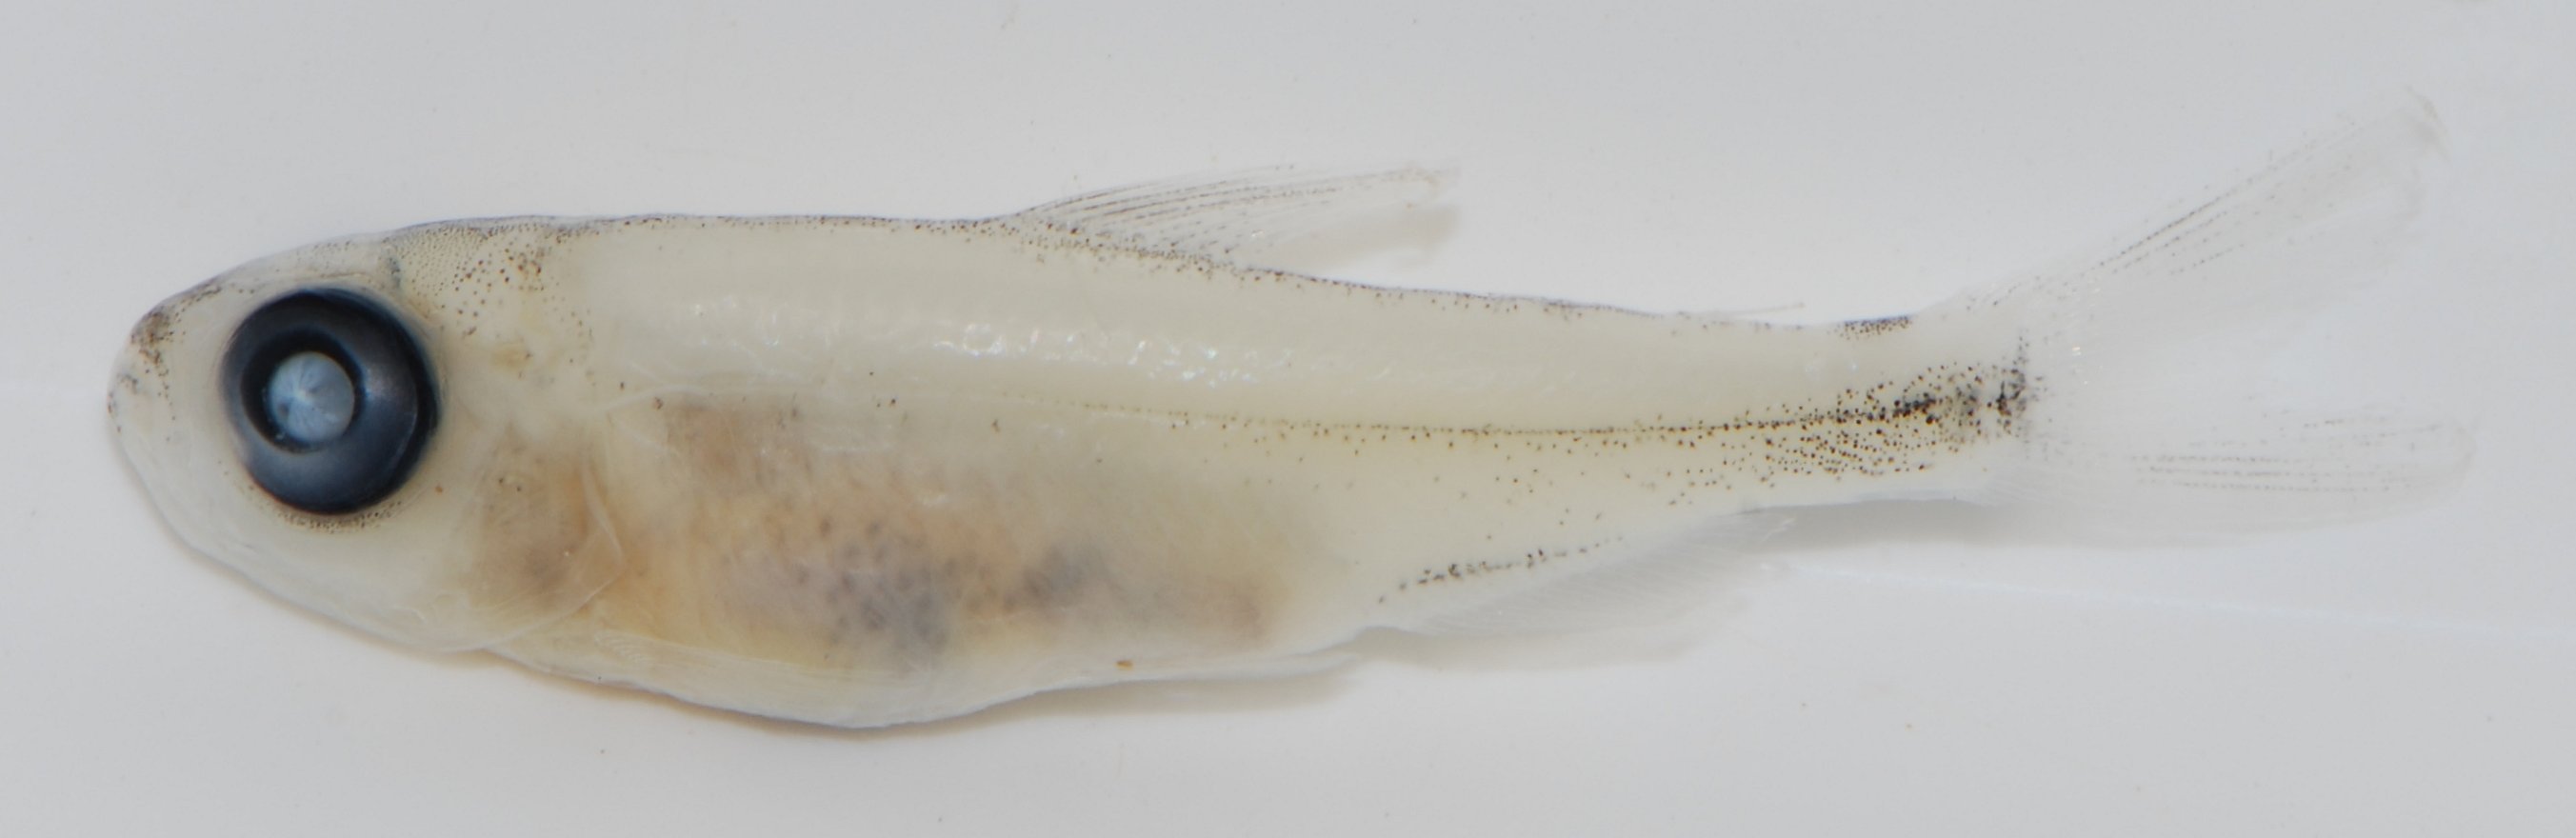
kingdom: Animalia
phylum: Chordata
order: Characiformes
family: Alestidae
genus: Bryconaethiops
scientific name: Bryconaethiops
